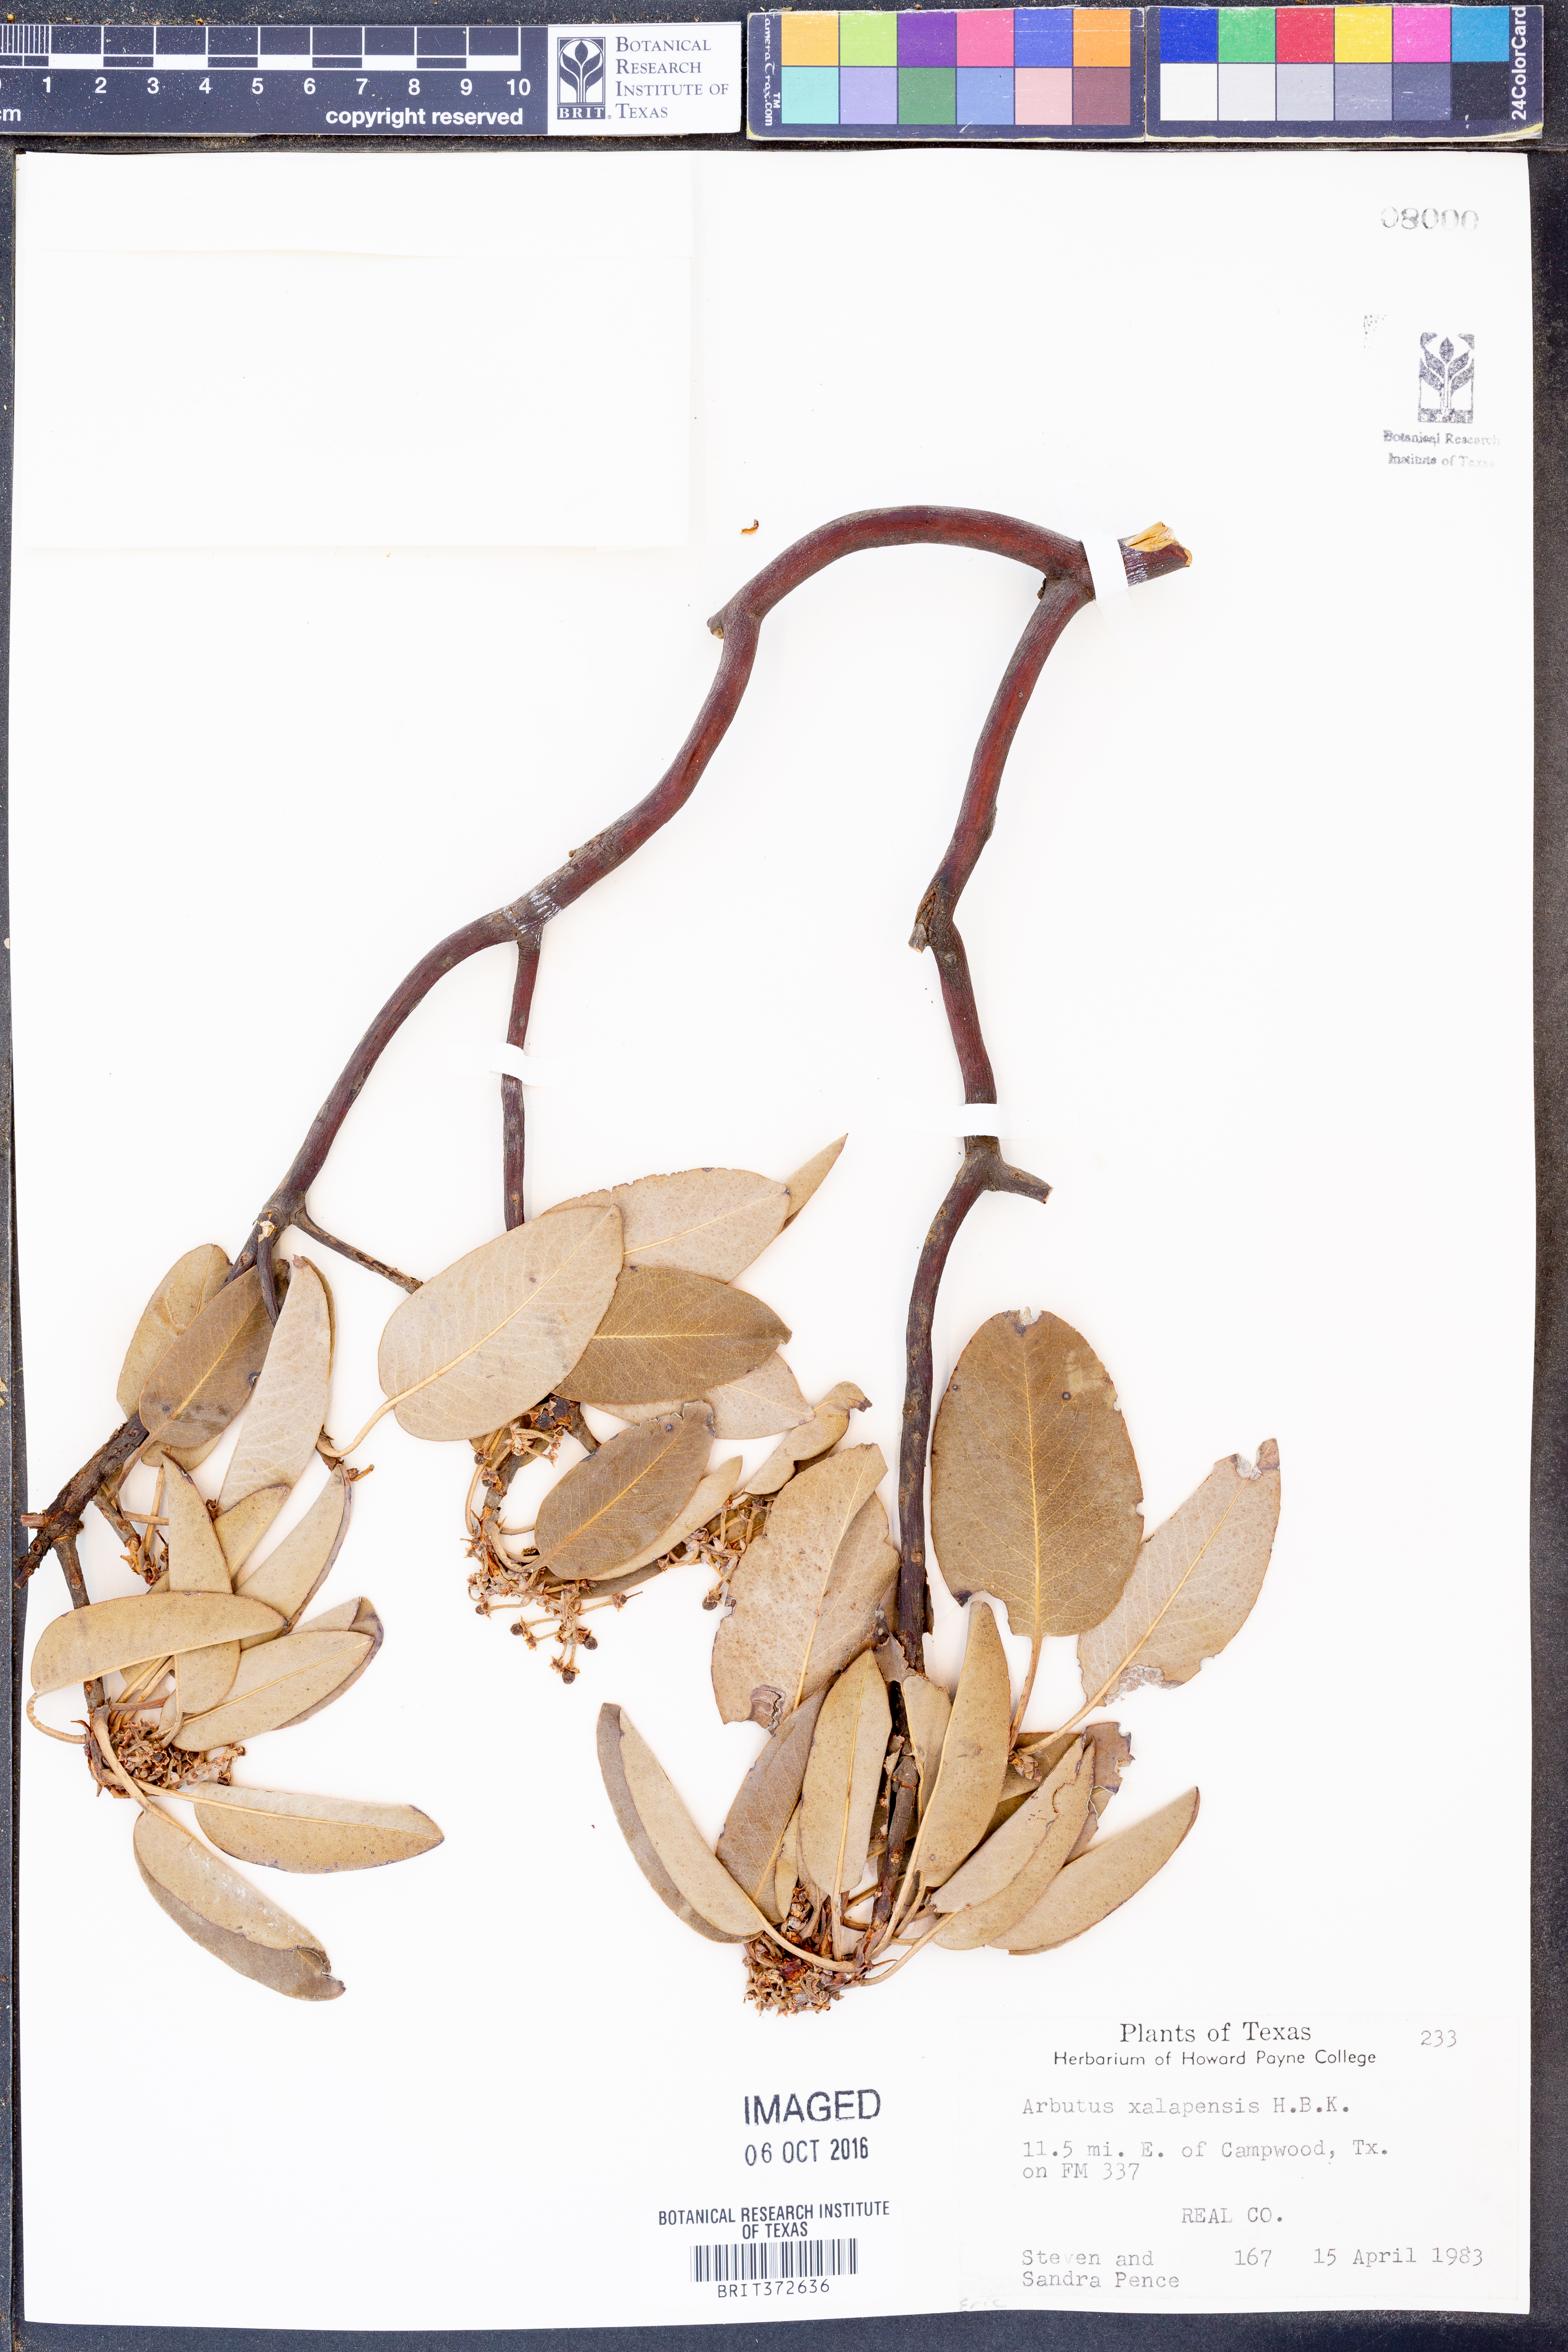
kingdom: Plantae
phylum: Tracheophyta
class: Magnoliopsida
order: Ericales
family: Ericaceae
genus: Arbutus
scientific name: Arbutus xalapensis
